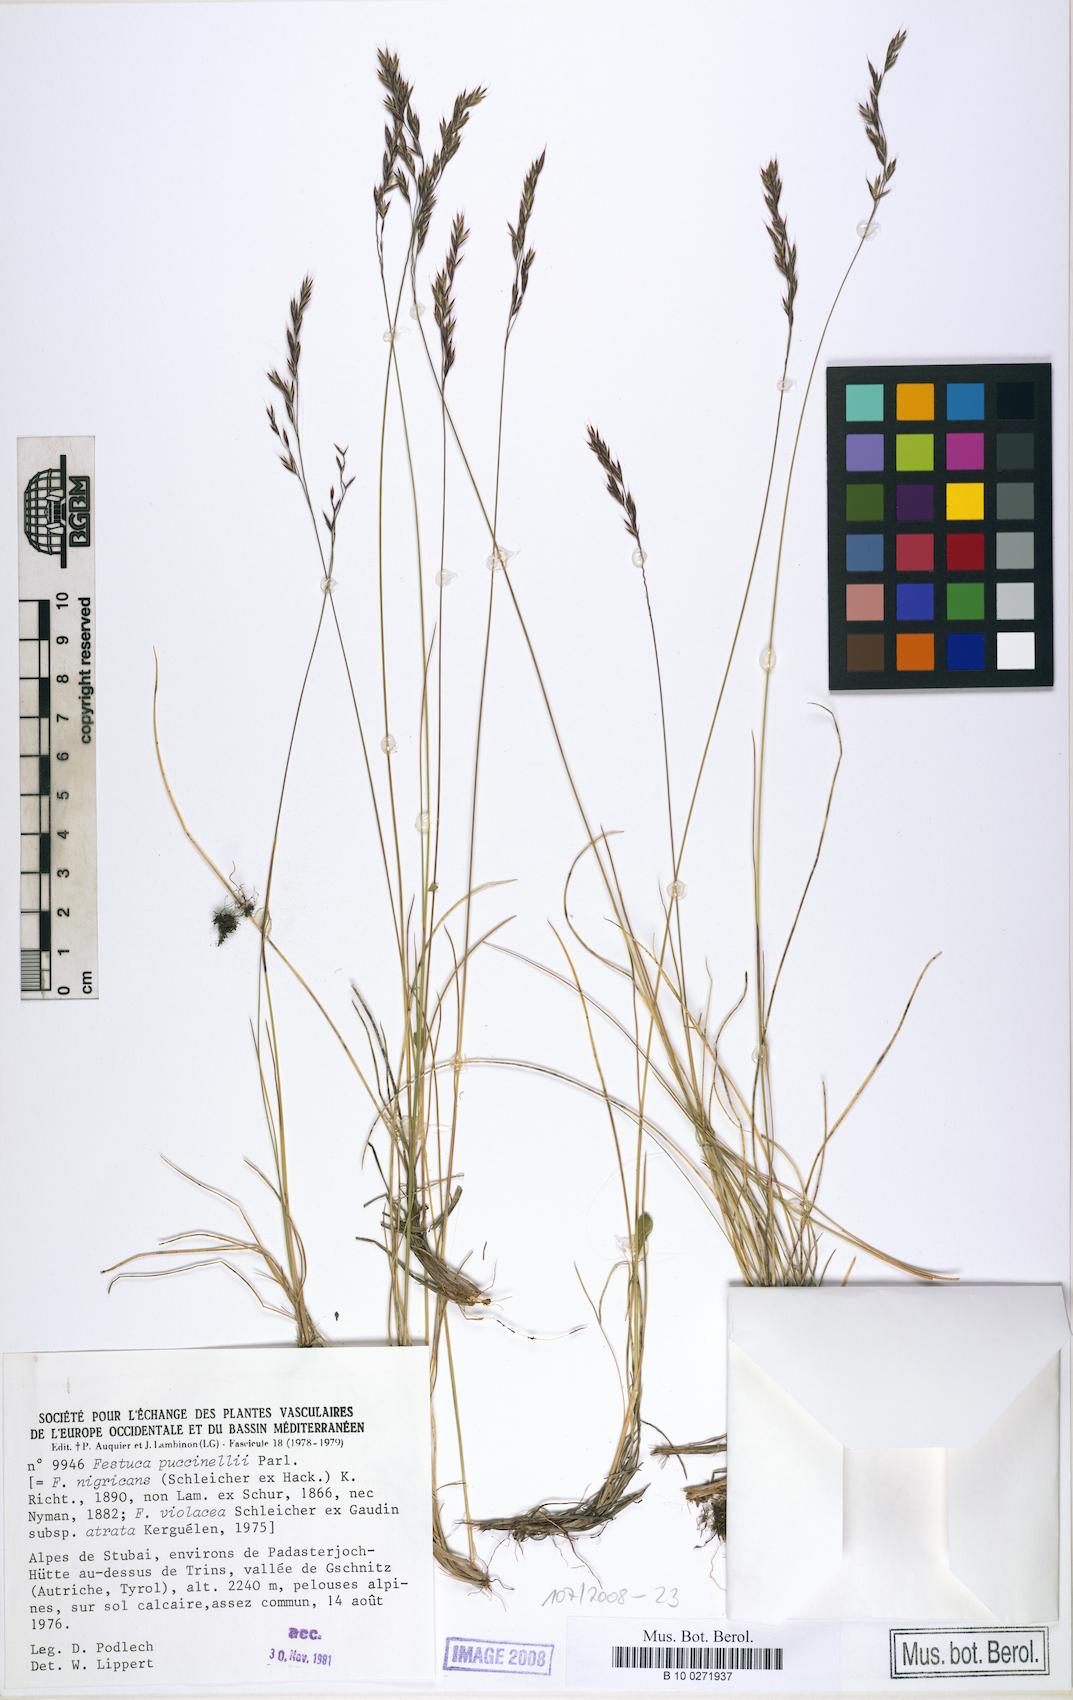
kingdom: Plantae
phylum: Tracheophyta
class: Liliopsida
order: Poales
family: Poaceae
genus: Festuca
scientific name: Festuca puccinellii
